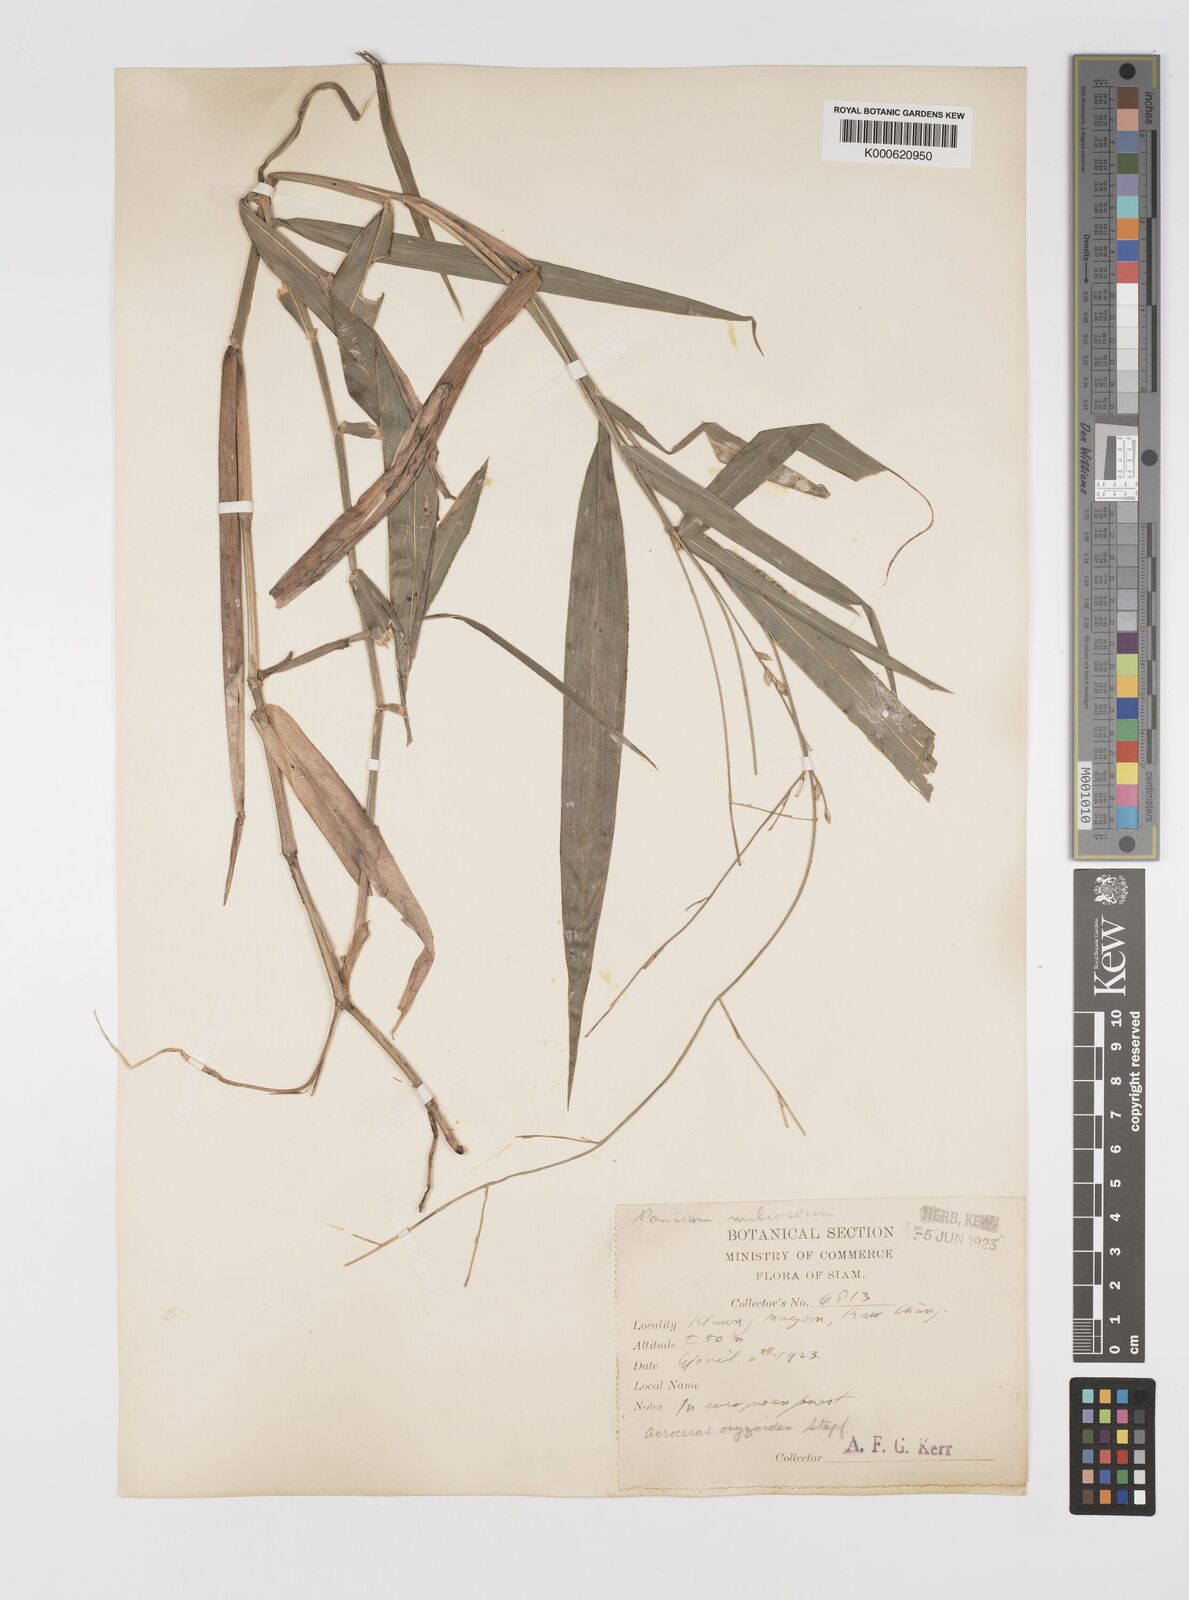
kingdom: Plantae
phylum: Tracheophyta
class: Liliopsida
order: Poales
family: Poaceae
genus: Acroceras
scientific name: Acroceras
